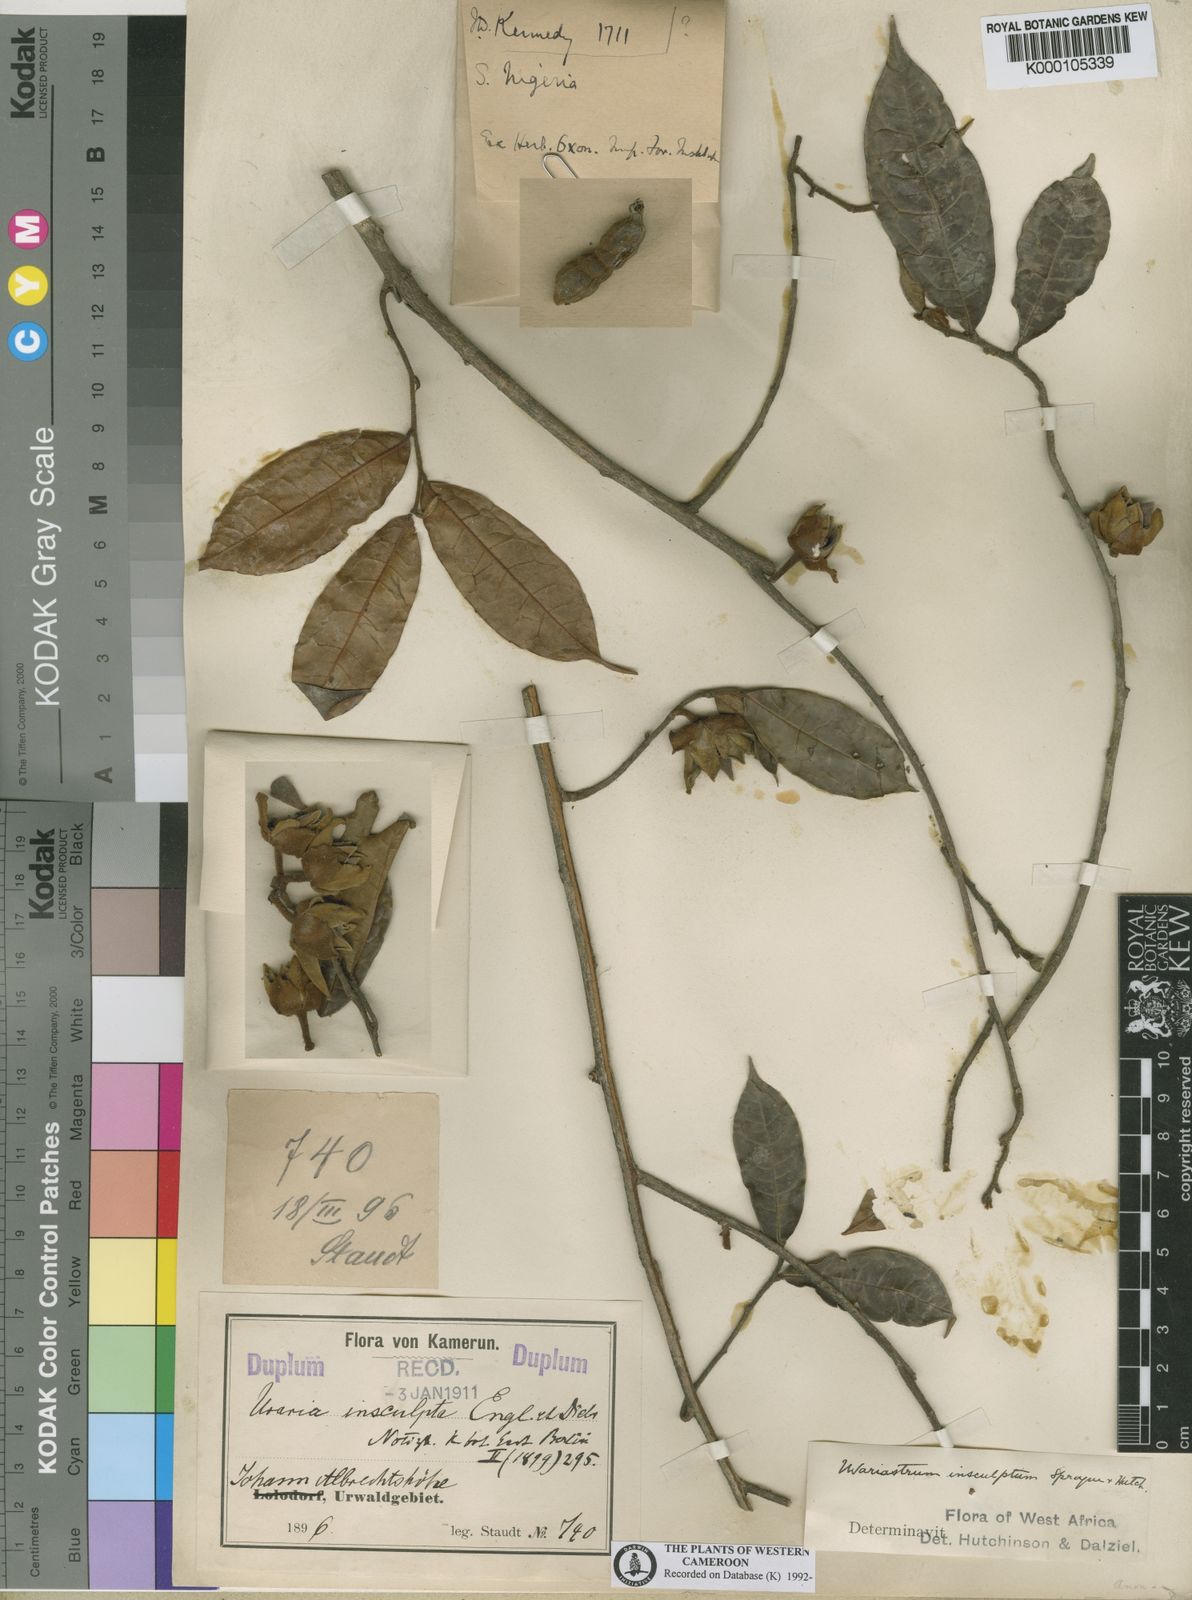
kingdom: Plantae
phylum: Tracheophyta
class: Magnoliopsida
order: Magnoliales
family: Annonaceae
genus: Uvariastrum
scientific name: Uvariastrum pierreanum
